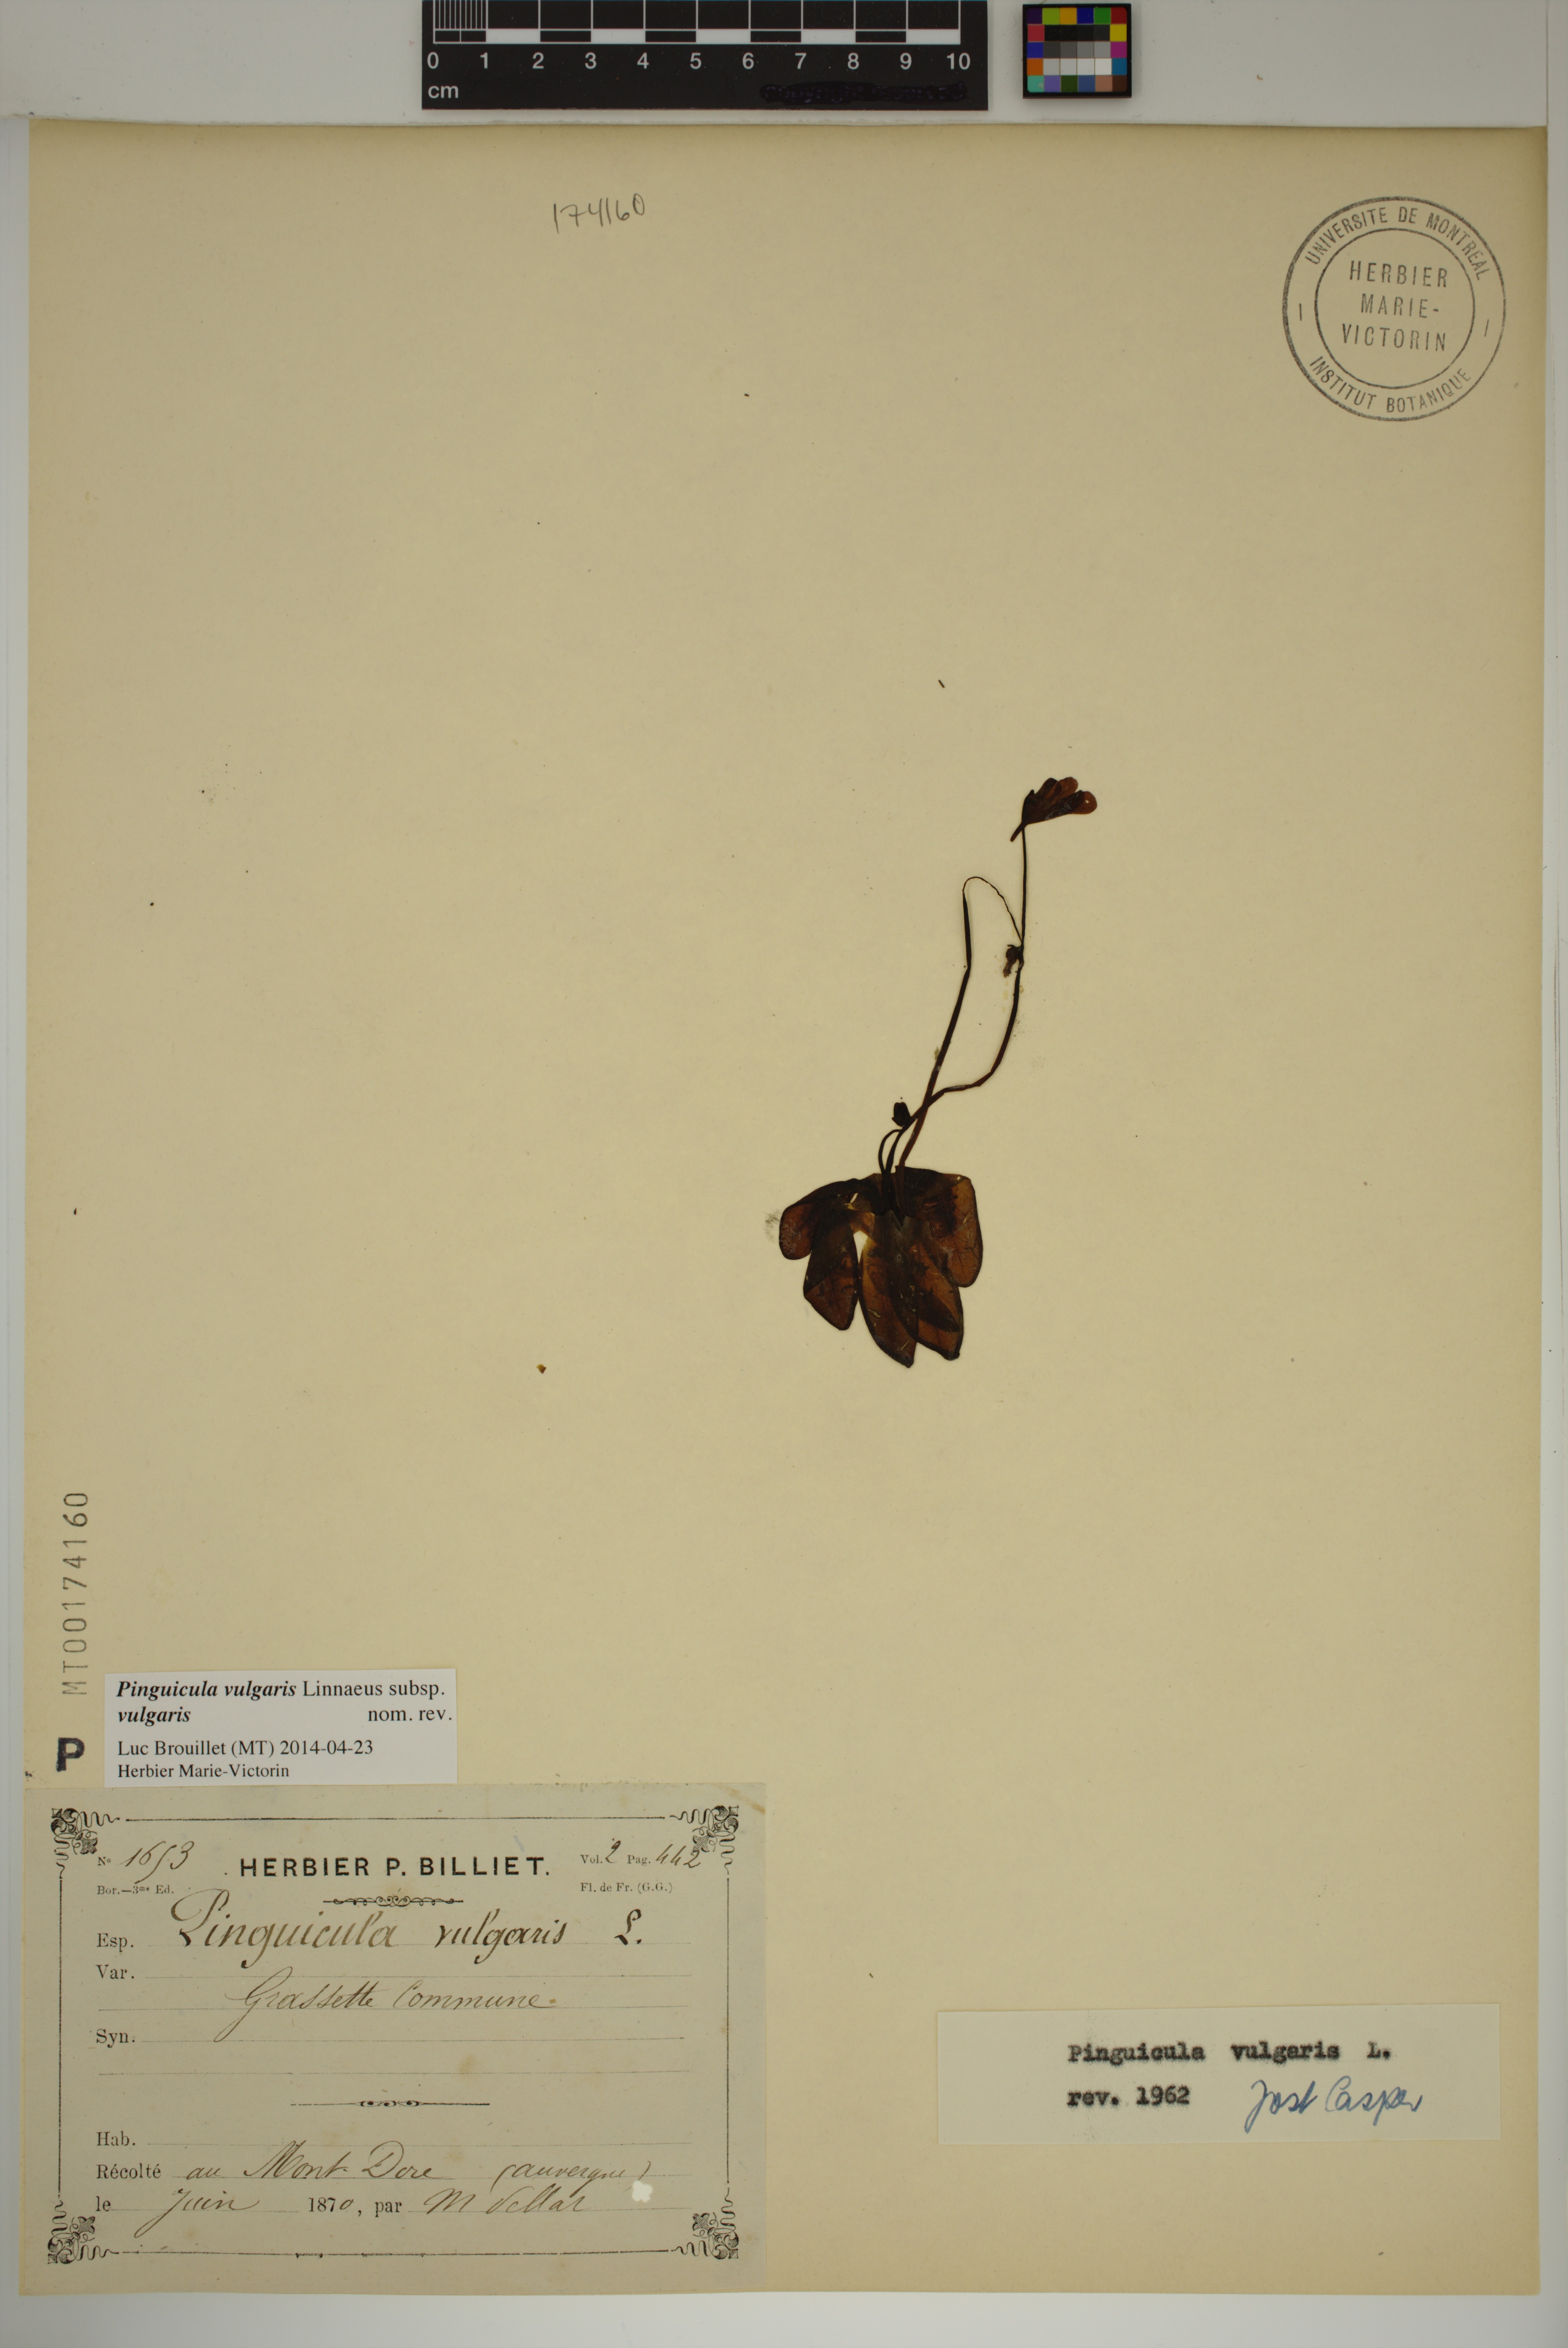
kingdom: Plantae
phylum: Tracheophyta
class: Magnoliopsida
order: Lamiales
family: Lentibulariaceae
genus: Pinguicula
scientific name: Pinguicula vulgaris
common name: Common butterwort
